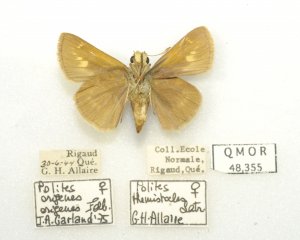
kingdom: Animalia
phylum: Arthropoda
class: Insecta
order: Lepidoptera
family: Hesperiidae
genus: Polites
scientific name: Polites
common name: Crossline Skipper
